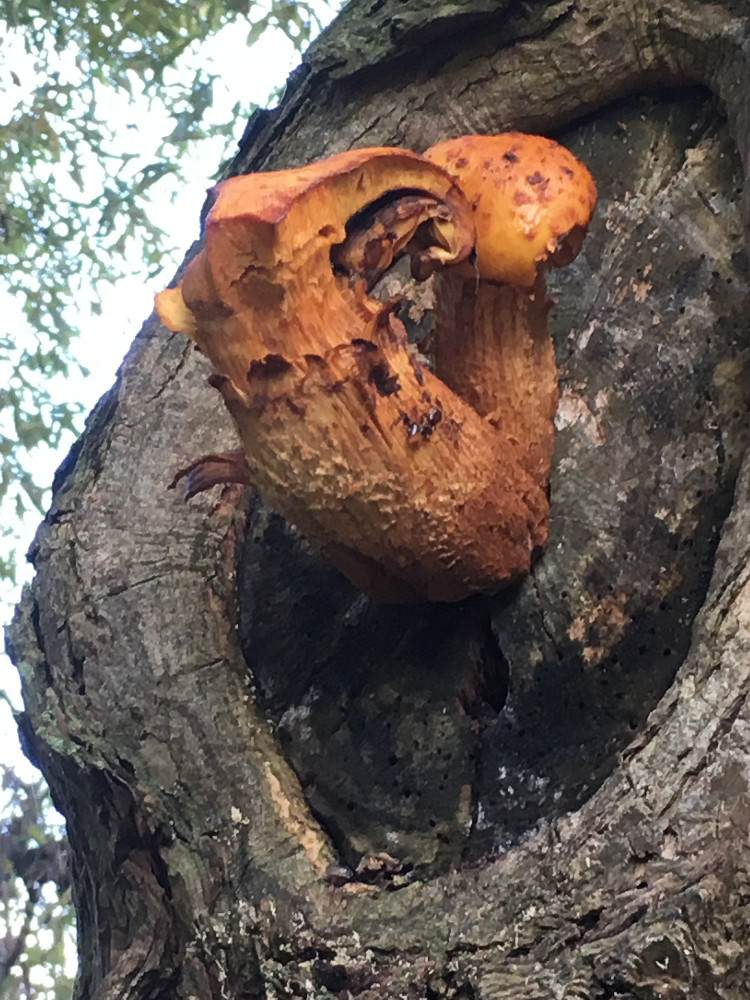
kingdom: Fungi
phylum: Basidiomycota
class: Agaricomycetes
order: Agaricales
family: Strophariaceae
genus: Pholiota
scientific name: Pholiota aurivella
